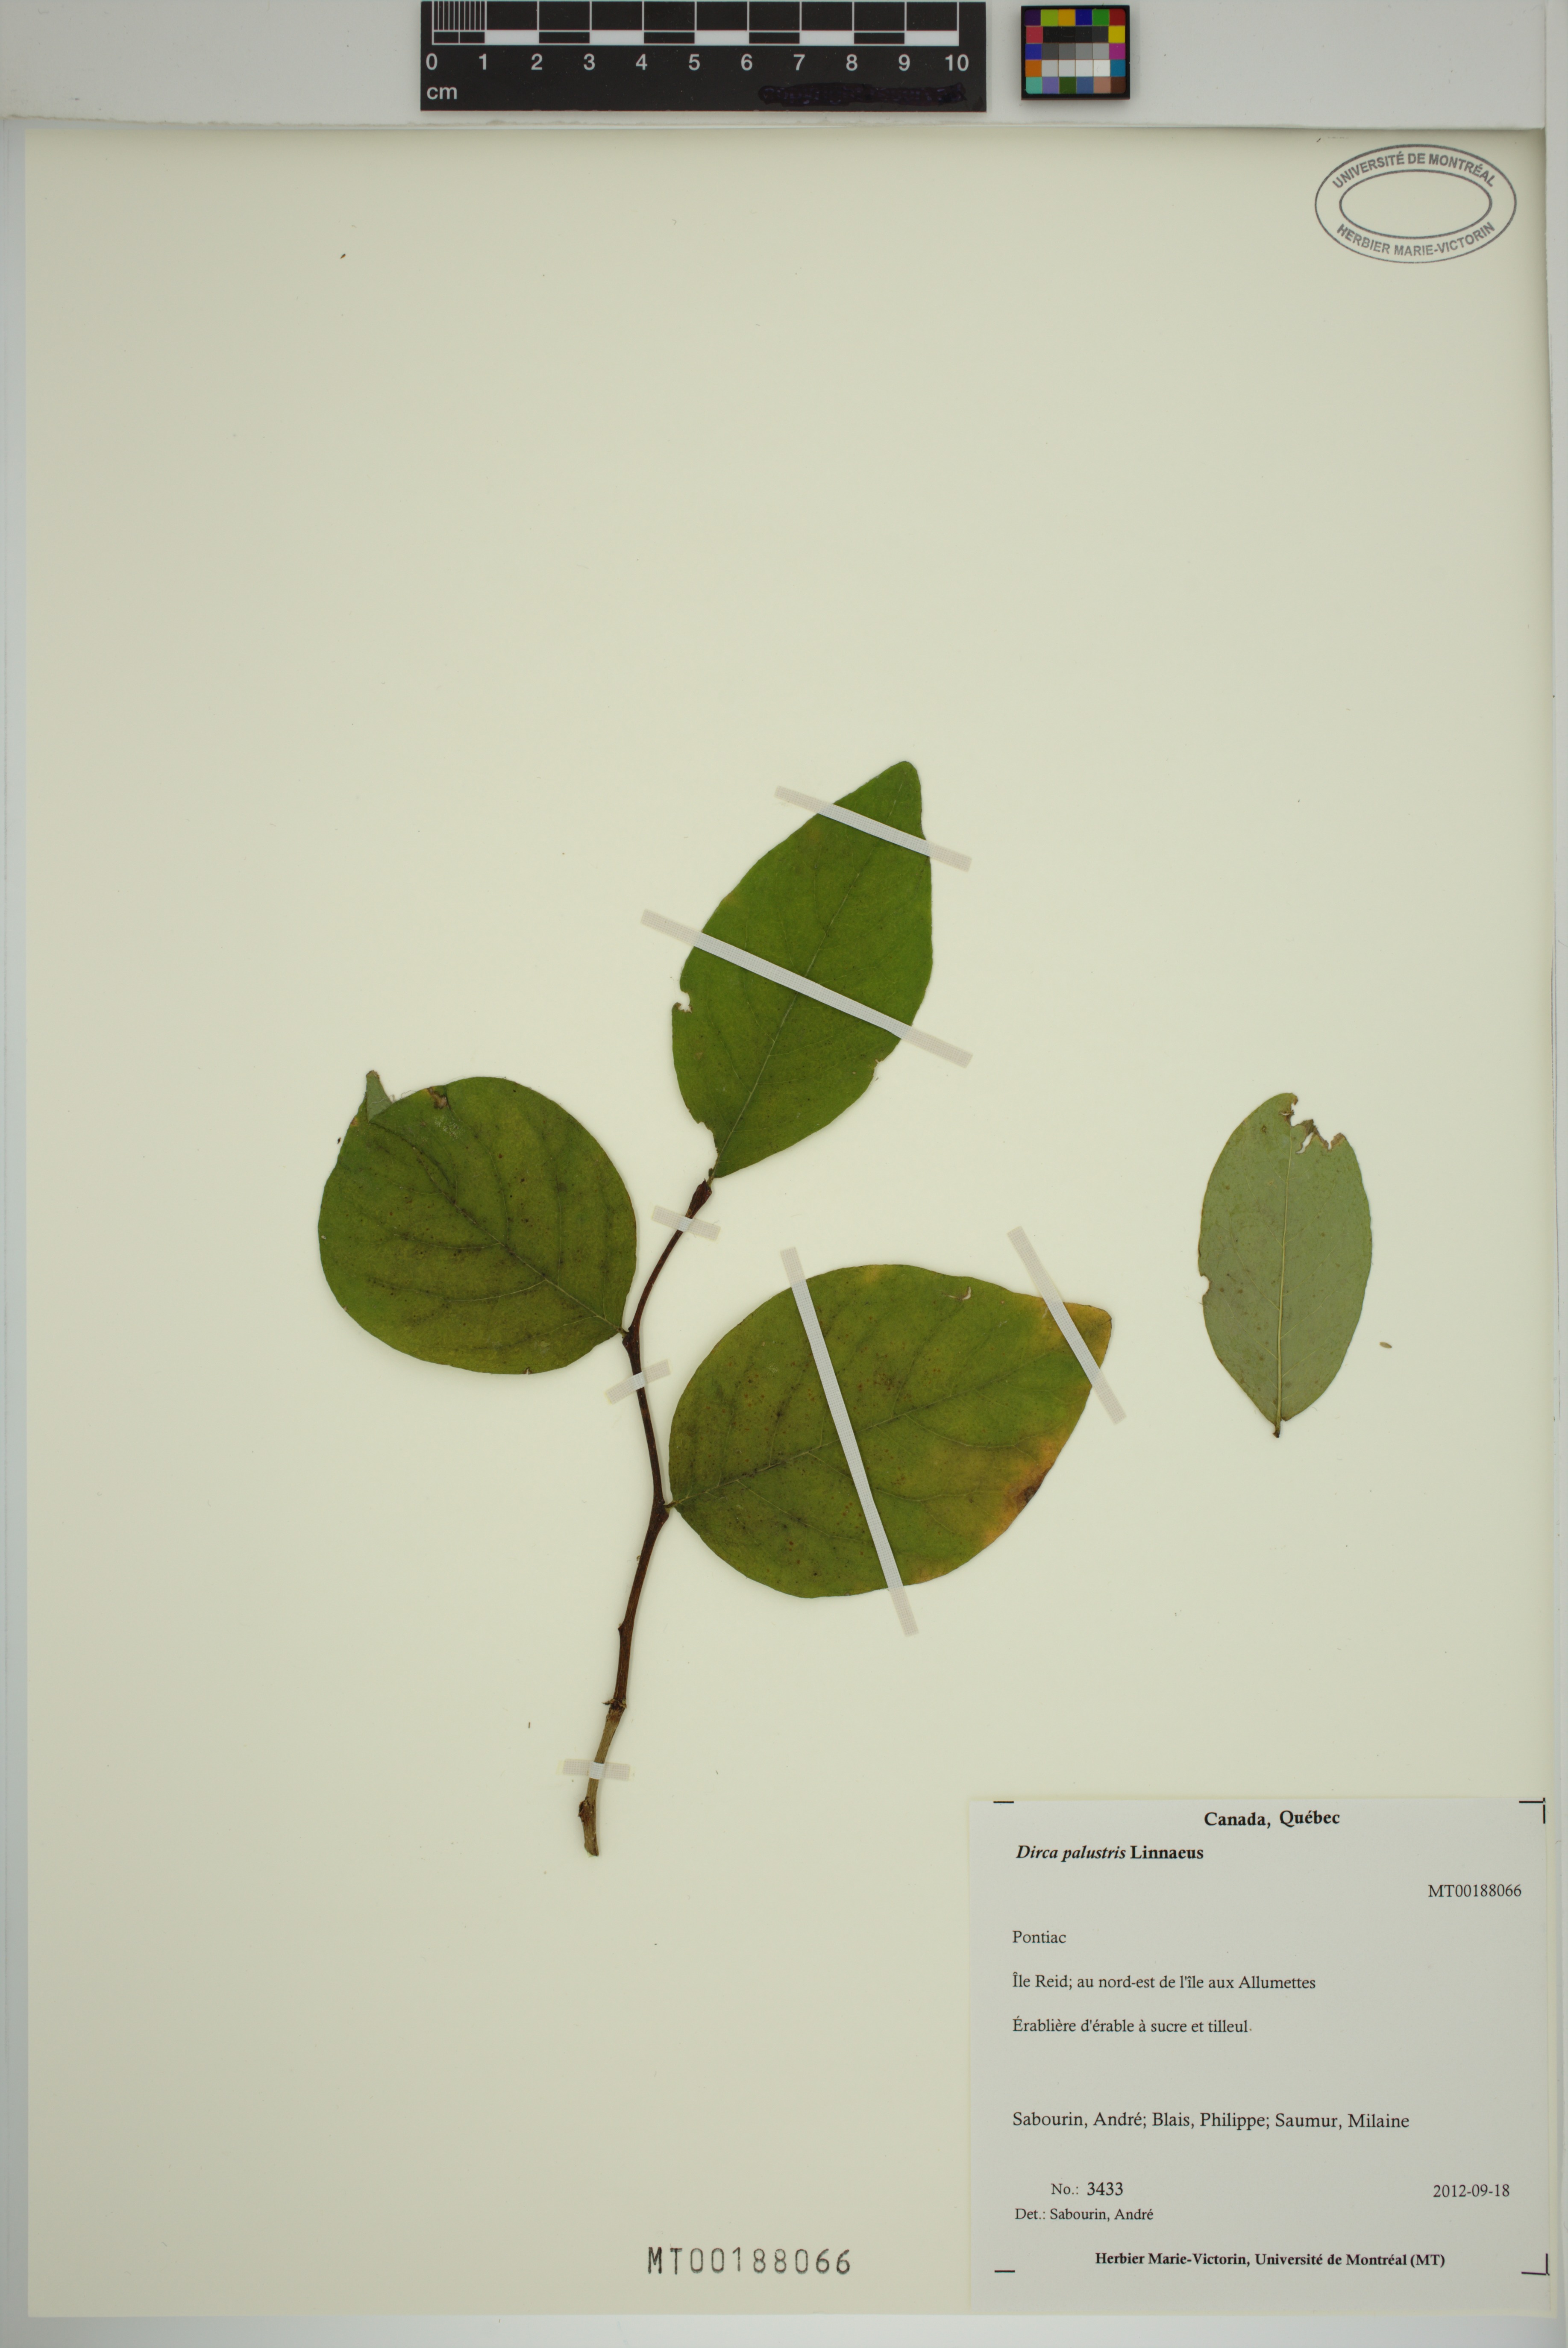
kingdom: Plantae
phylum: Tracheophyta
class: Magnoliopsida
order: Malvales
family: Thymelaeaceae
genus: Dirca
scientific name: Dirca palustris
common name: Leatherwood
